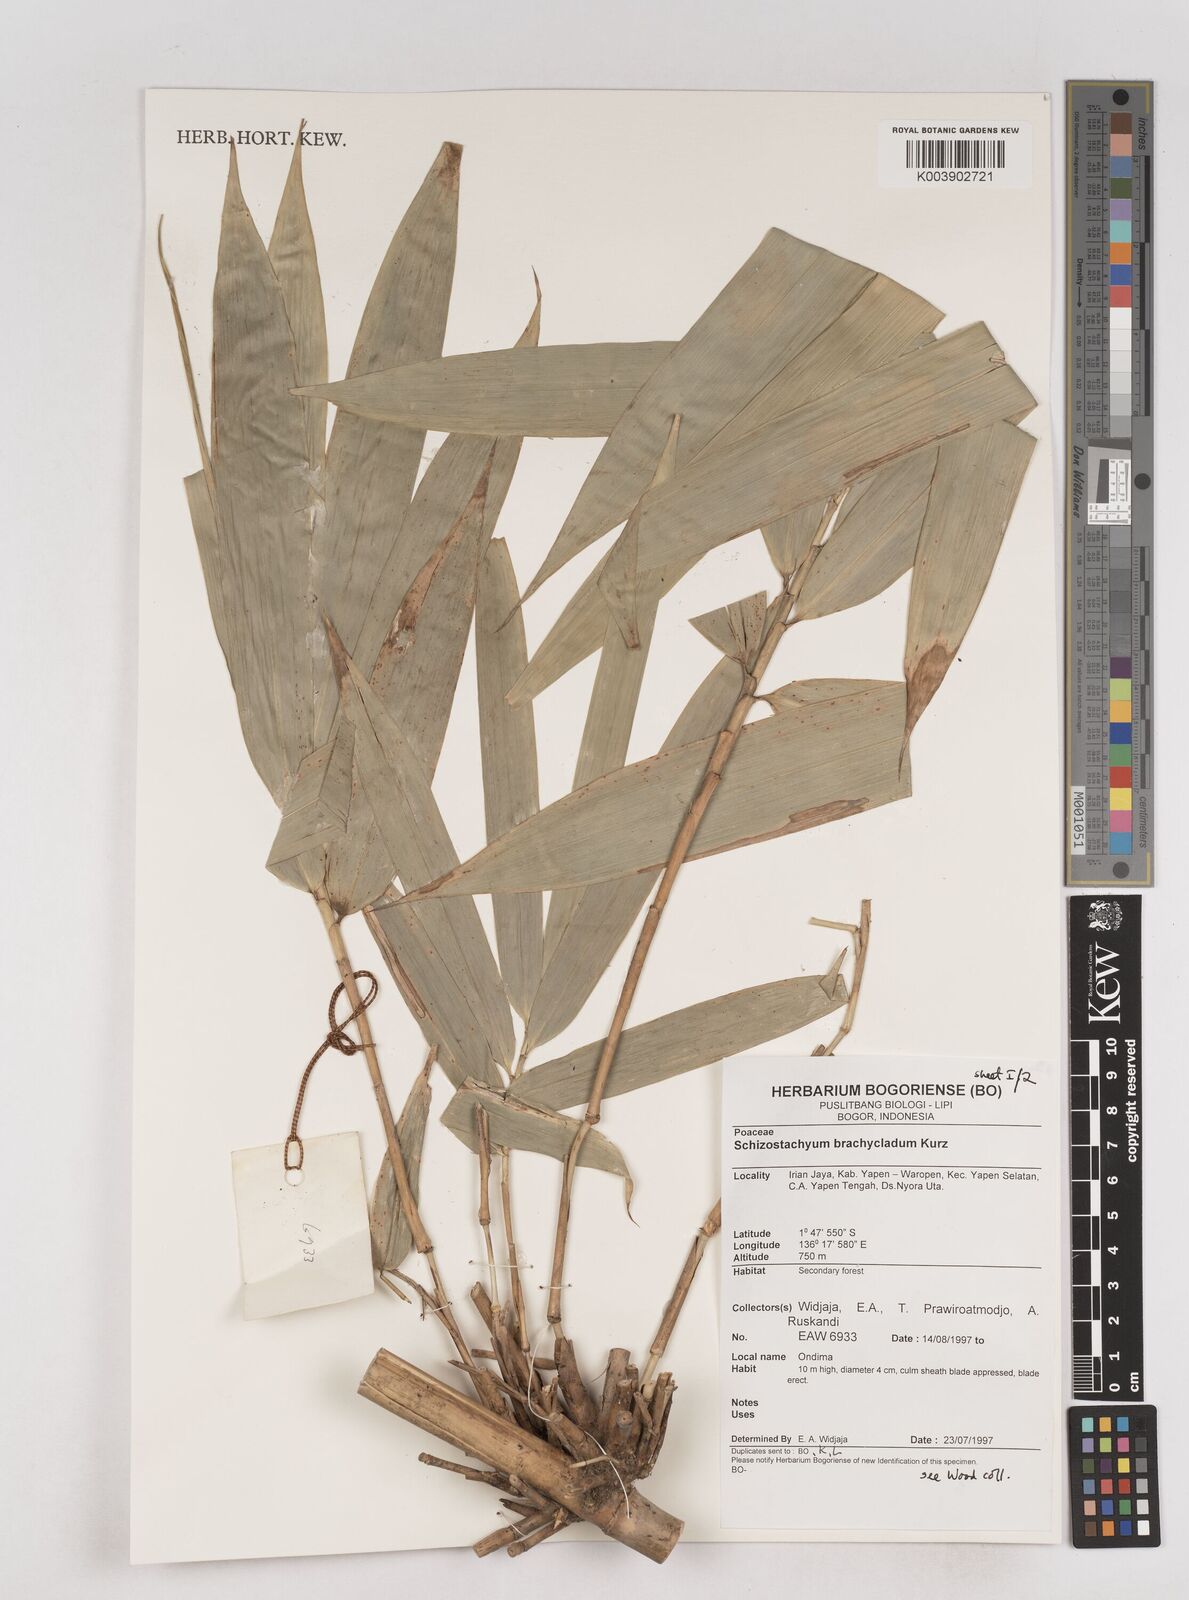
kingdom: Plantae
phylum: Tracheophyta
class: Liliopsida
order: Poales
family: Poaceae
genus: Schizostachyum
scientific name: Schizostachyum brachycladum
